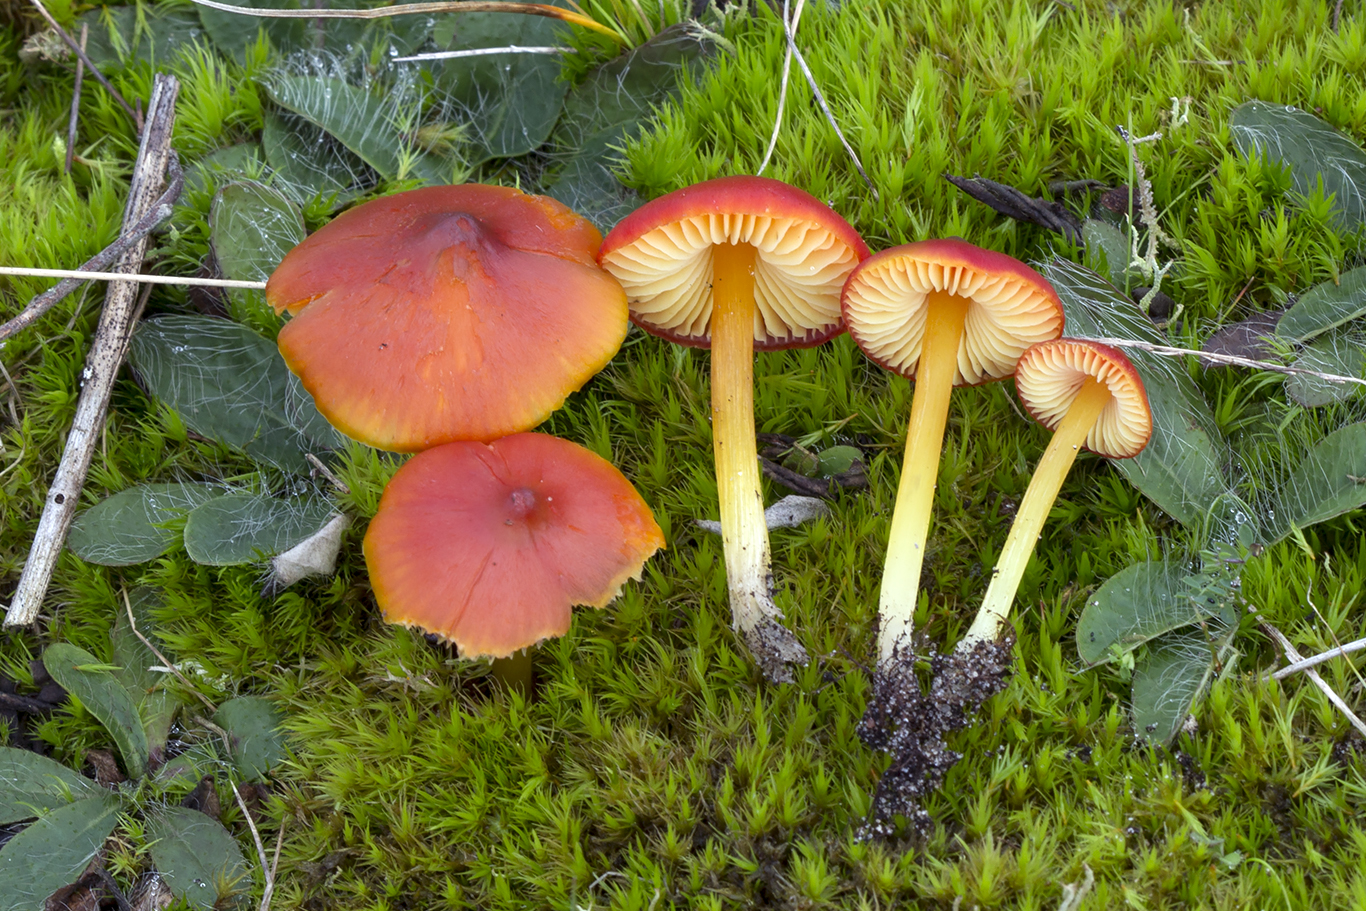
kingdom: Fungi
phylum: Basidiomycota
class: Agaricomycetes
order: Agaricales
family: Hygrophoraceae
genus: Hygrocybe
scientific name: Hygrocybe conicoides
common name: klit-vokshat
